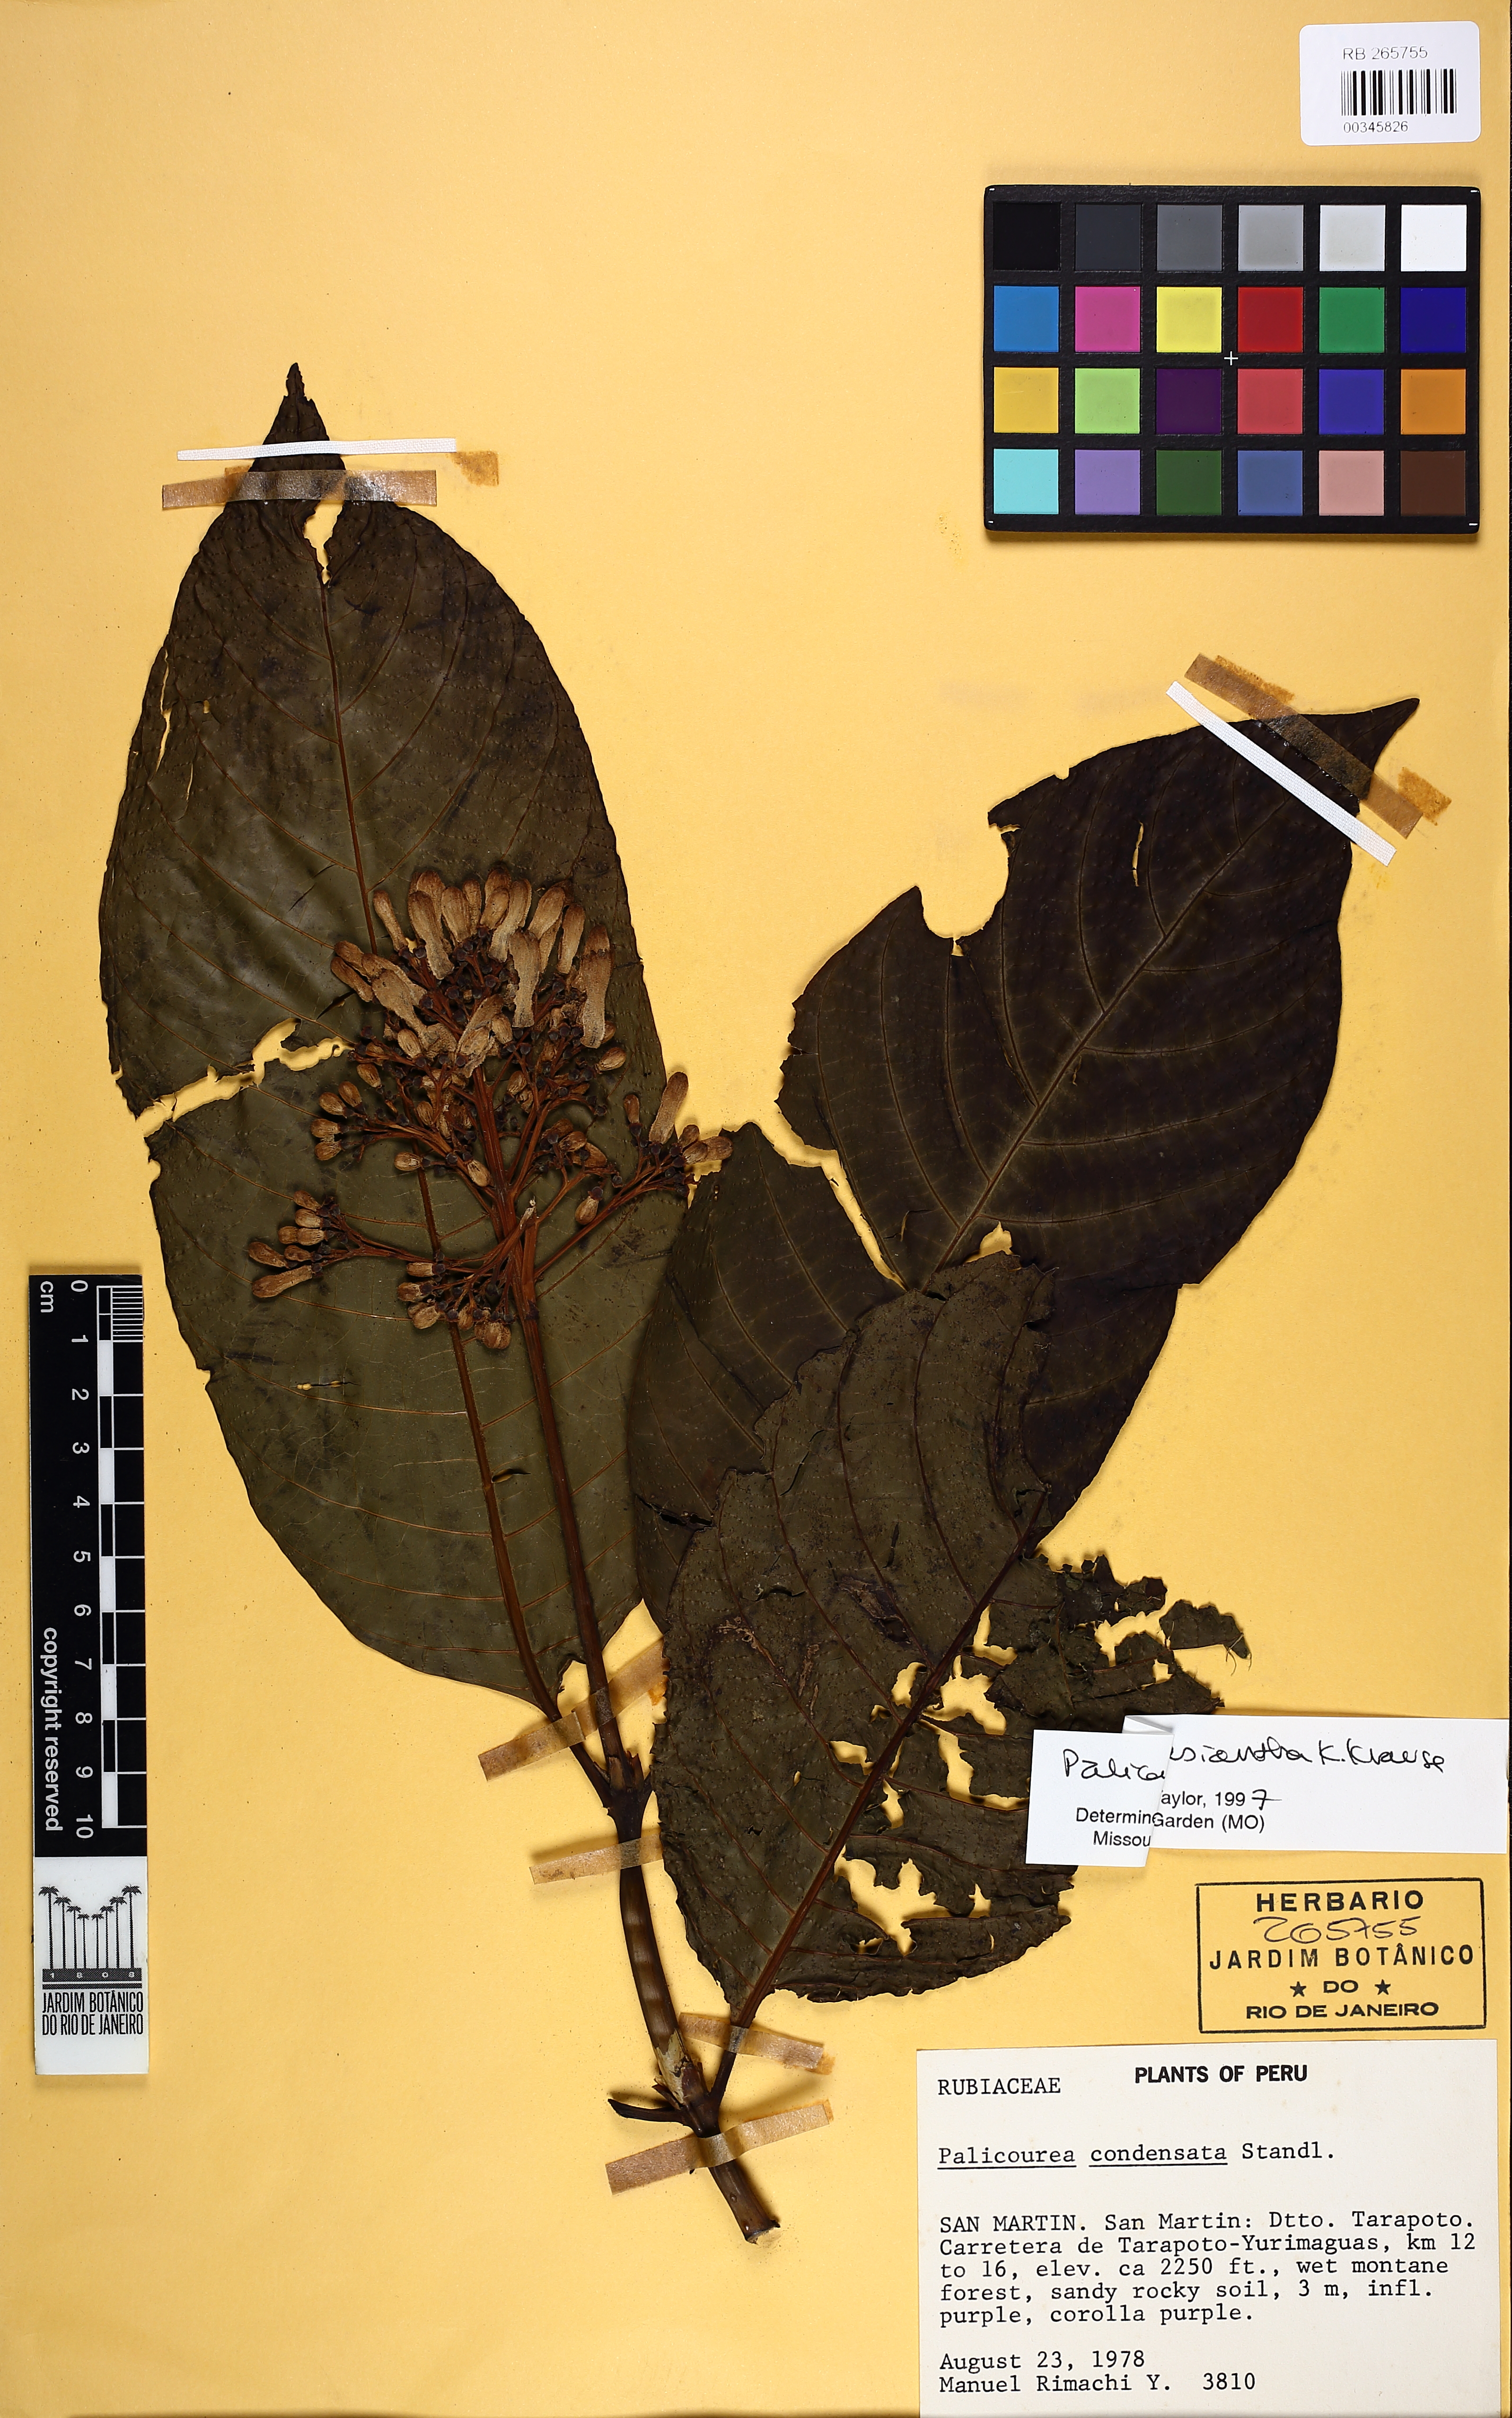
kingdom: Plantae
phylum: Tracheophyta
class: Magnoliopsida
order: Gentianales
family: Rubiaceae
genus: Palicourea
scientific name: Palicourea lasiantha
